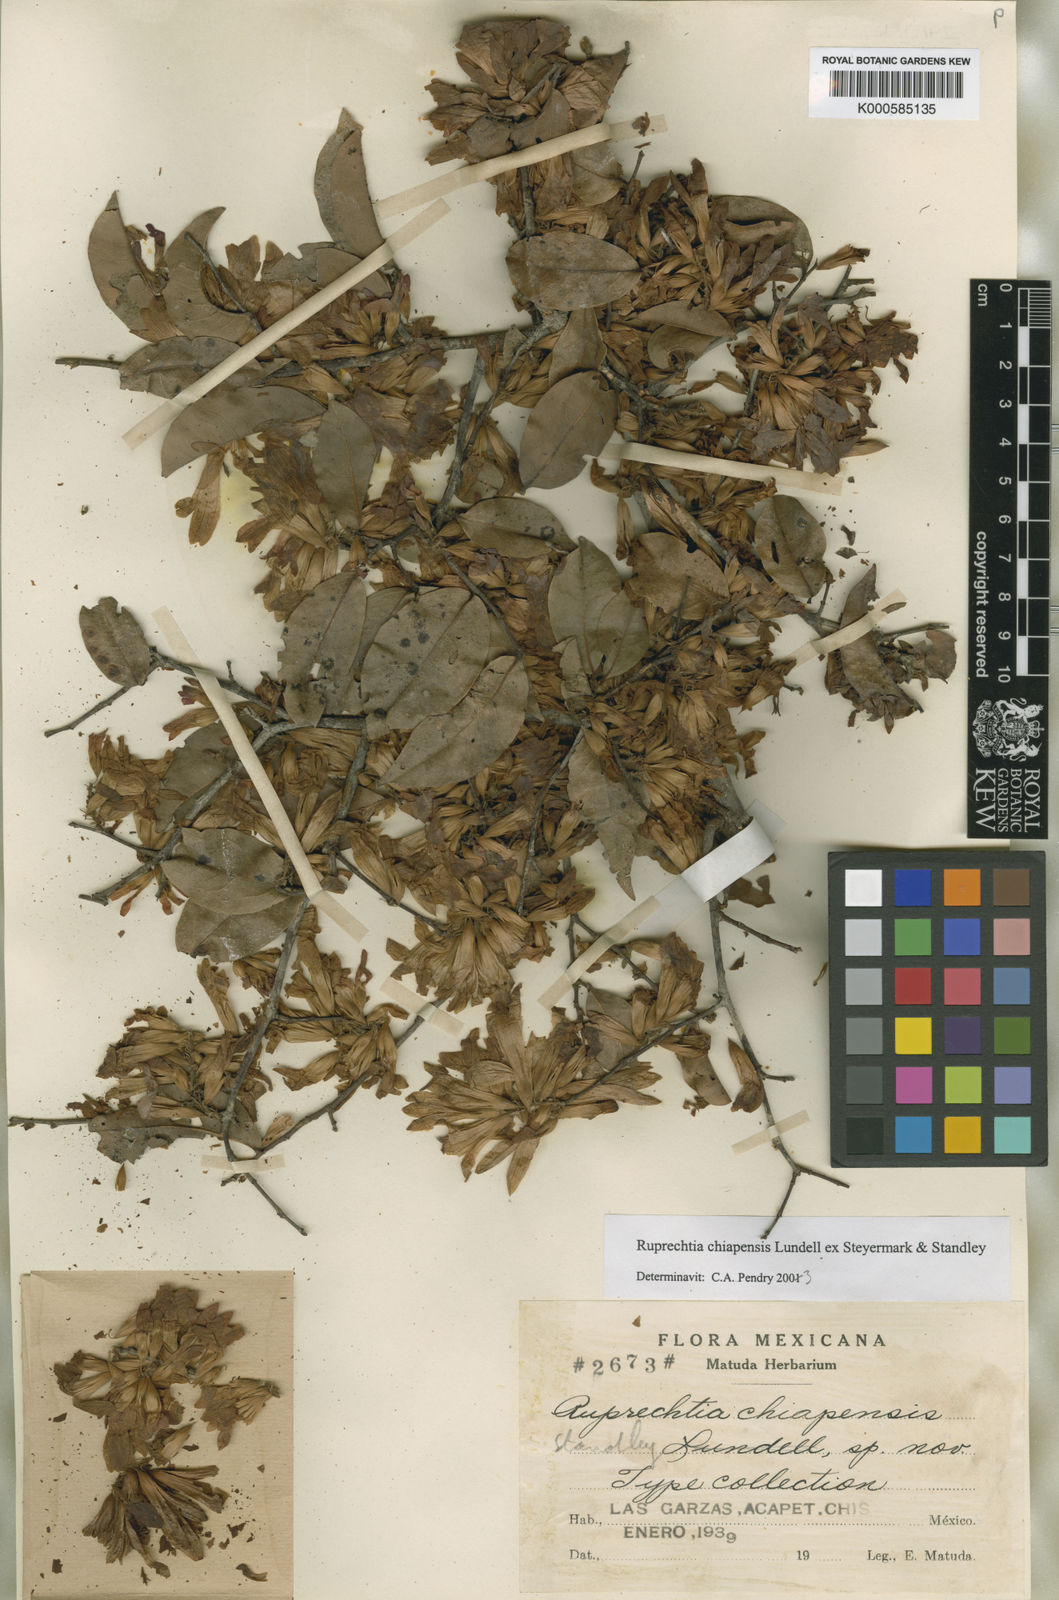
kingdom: Plantae
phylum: Tracheophyta
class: Magnoliopsida
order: Caryophyllales
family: Polygonaceae
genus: Ruprechtia
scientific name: Ruprechtia
